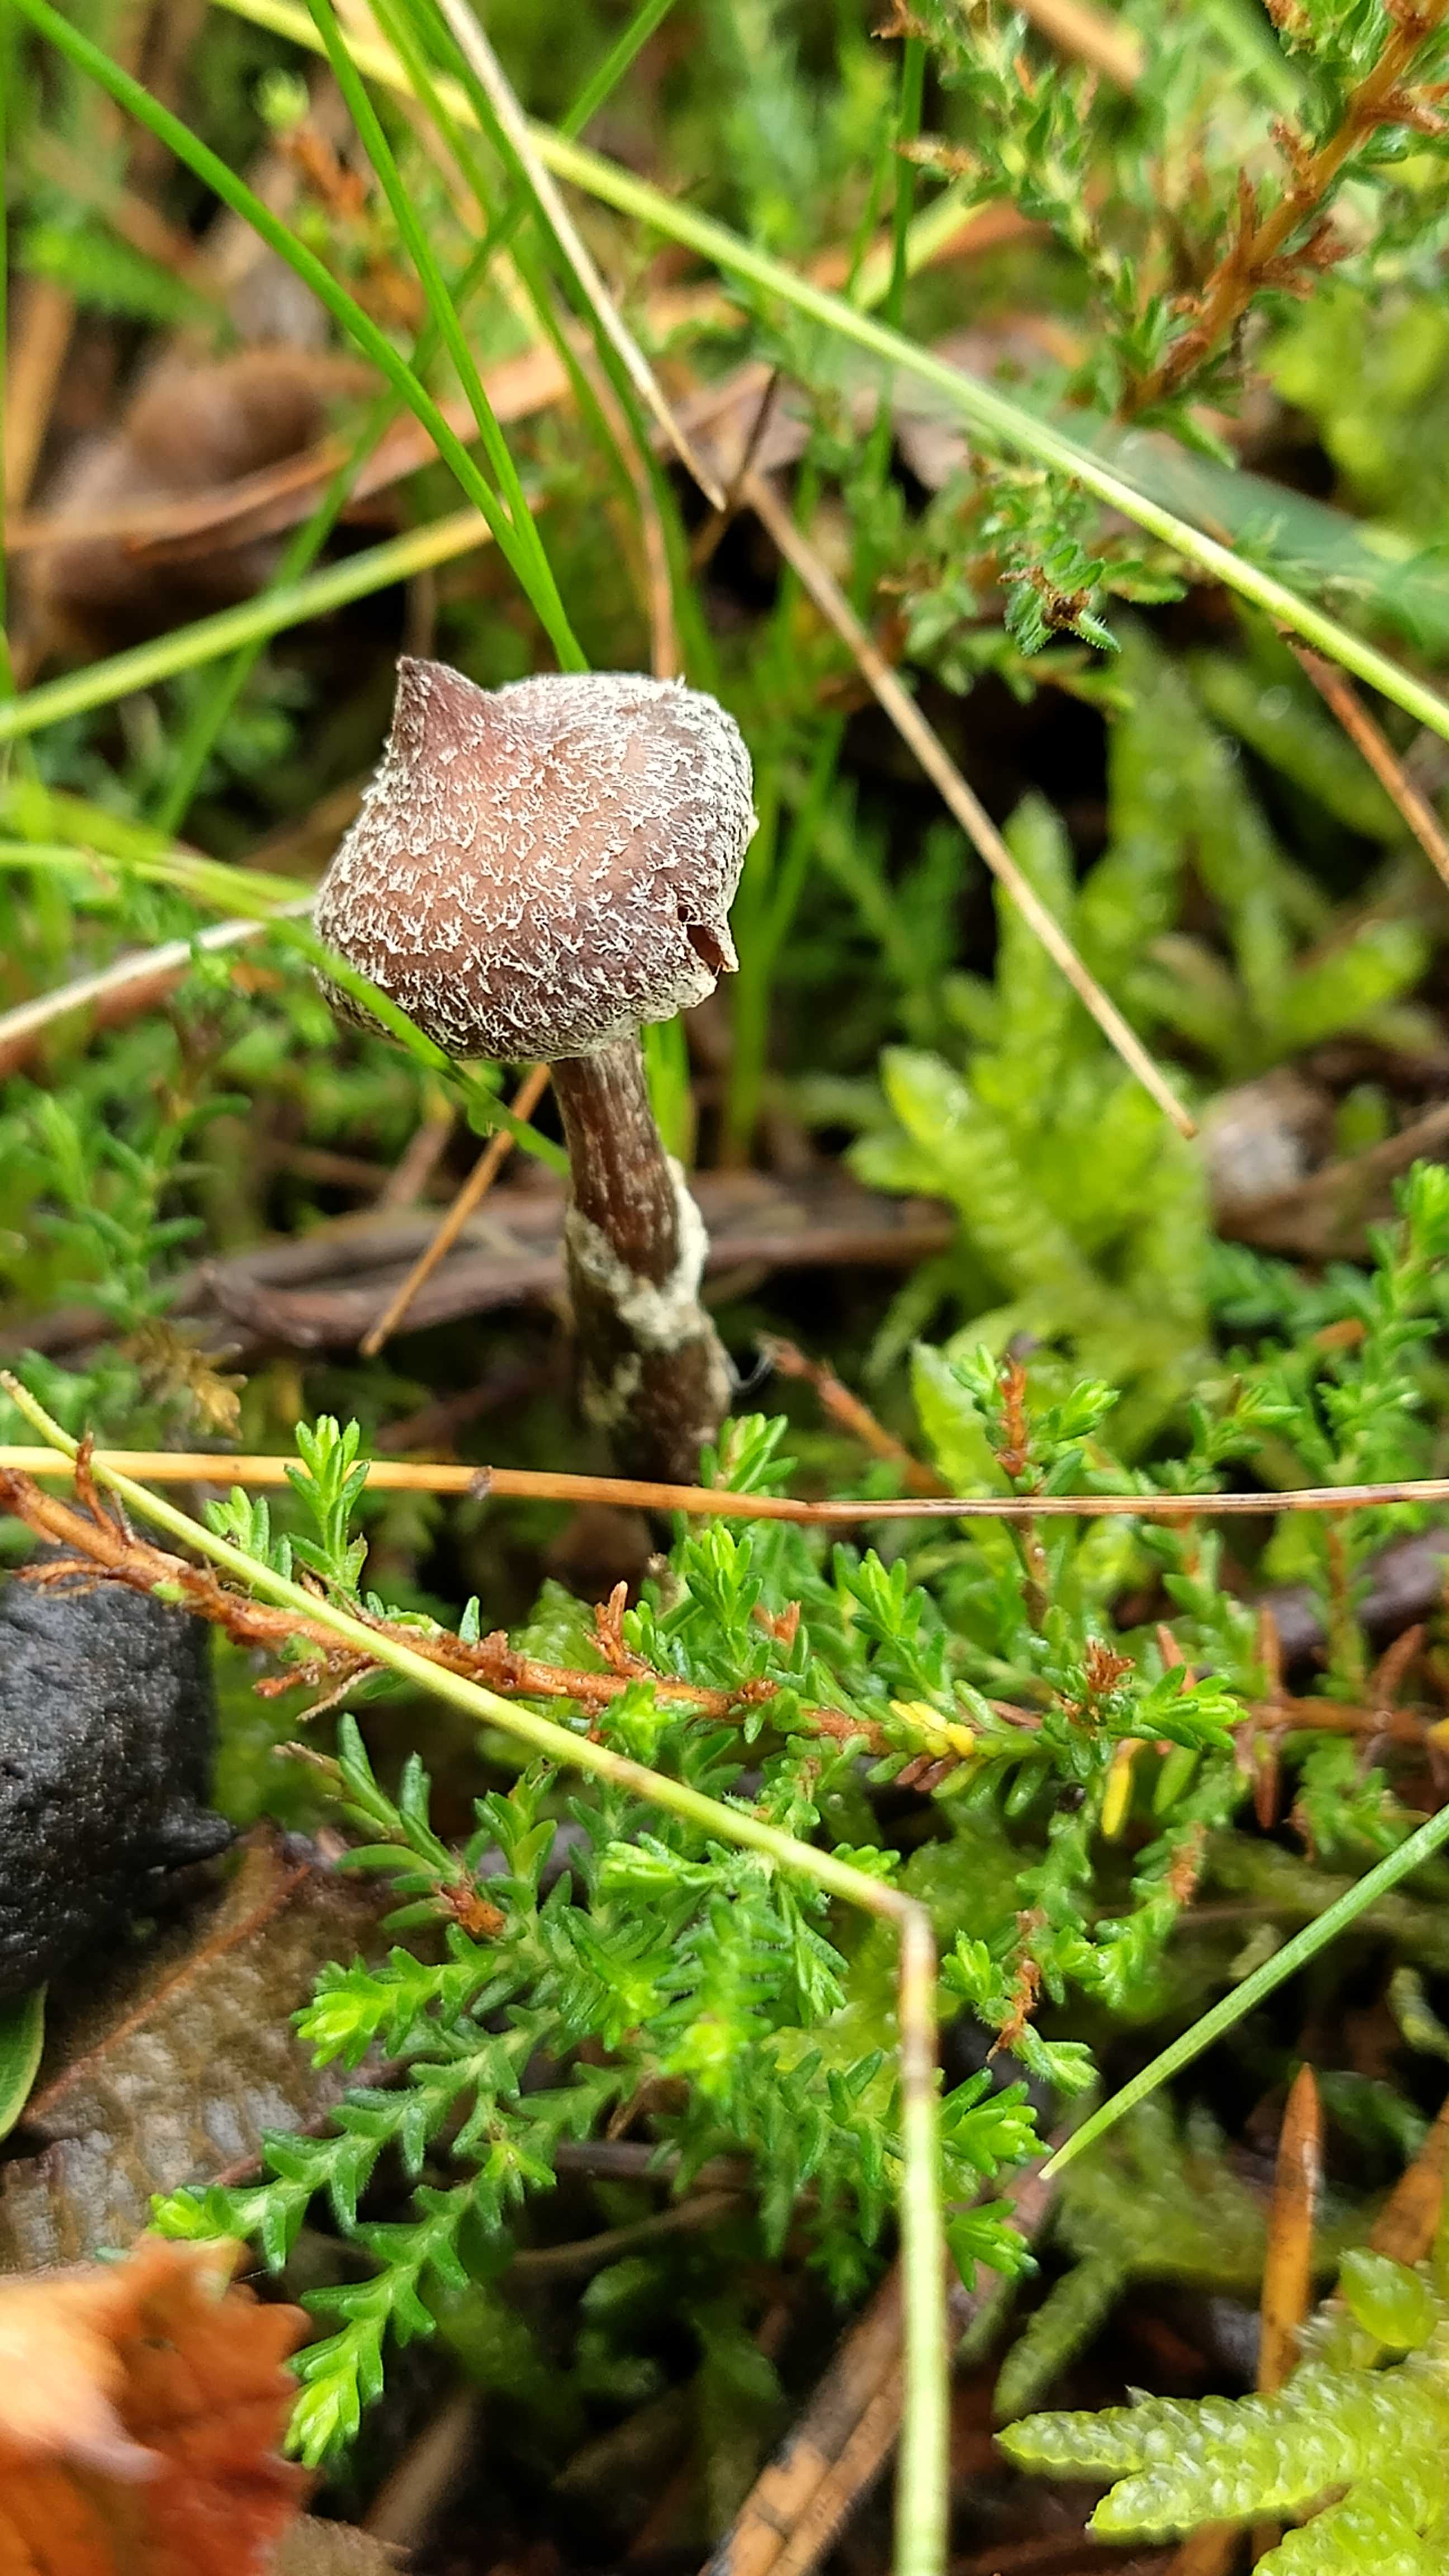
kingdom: Fungi
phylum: Basidiomycota
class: Agaricomycetes
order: Agaricales
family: Cortinariaceae
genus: Cortinarius
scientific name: Cortinarius flexipes
